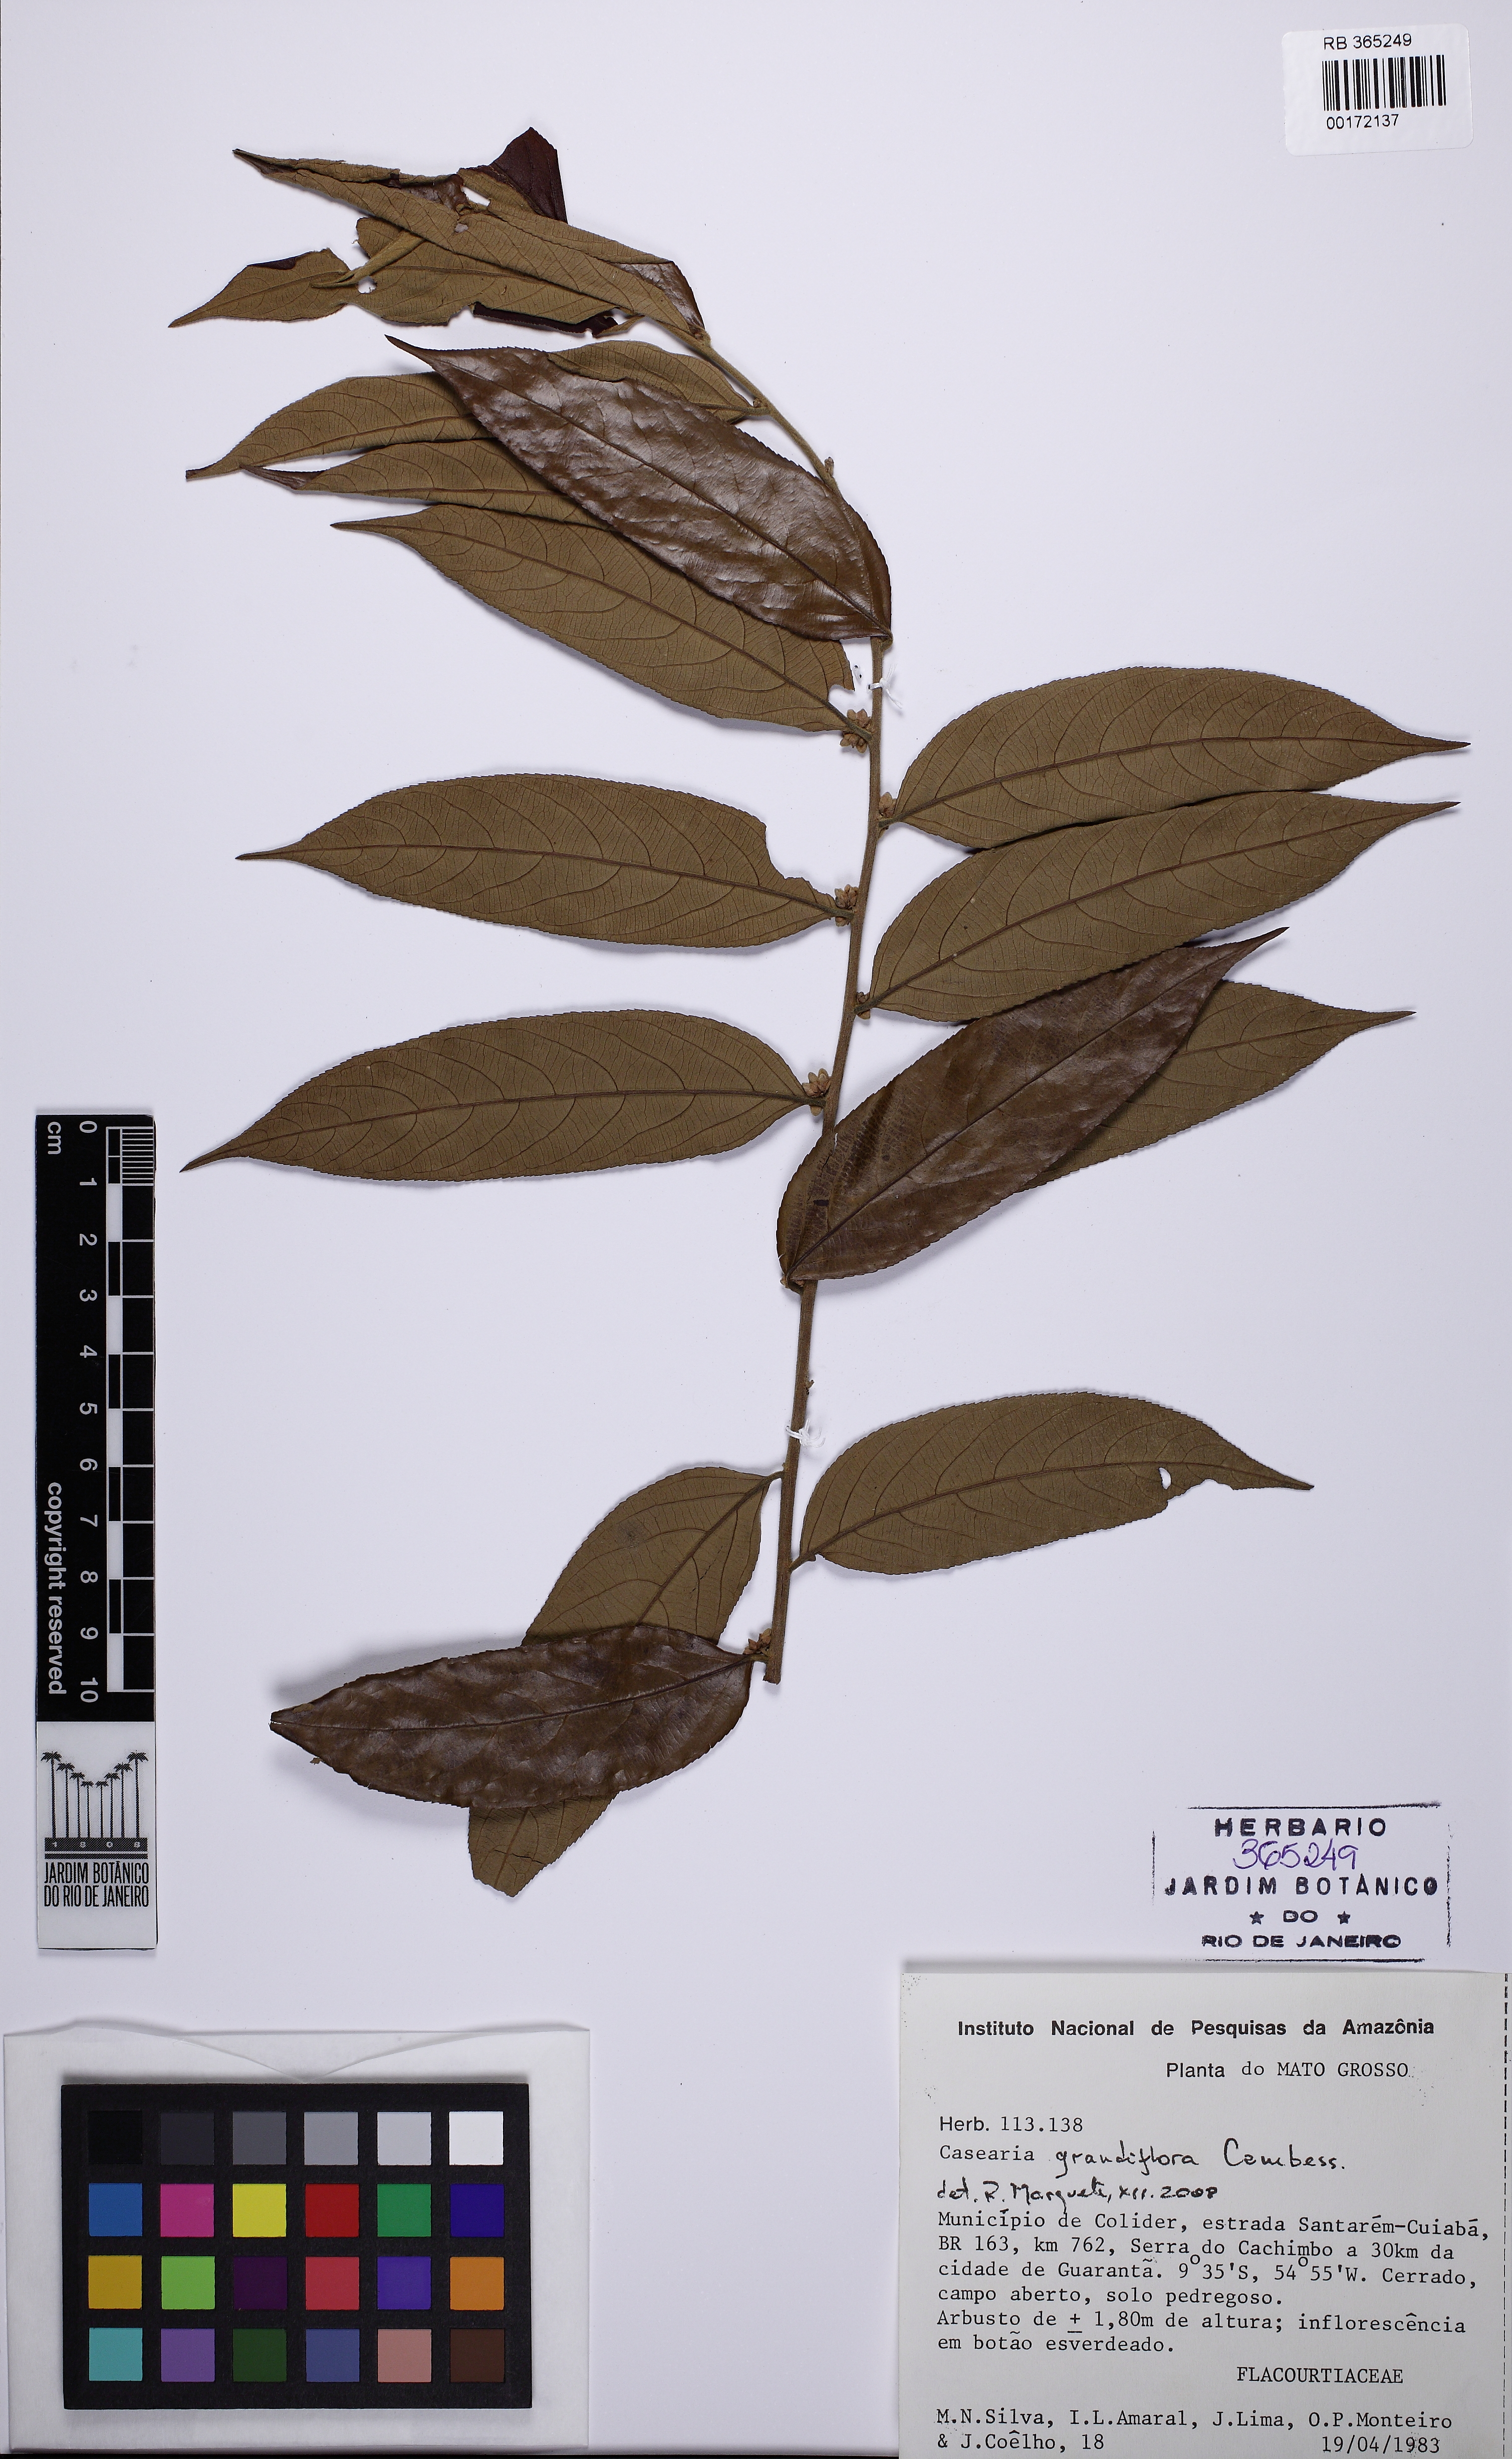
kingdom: Plantae
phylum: Tracheophyta
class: Magnoliopsida
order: Malpighiales
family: Salicaceae
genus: Casearia
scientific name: Casearia grandiflora
